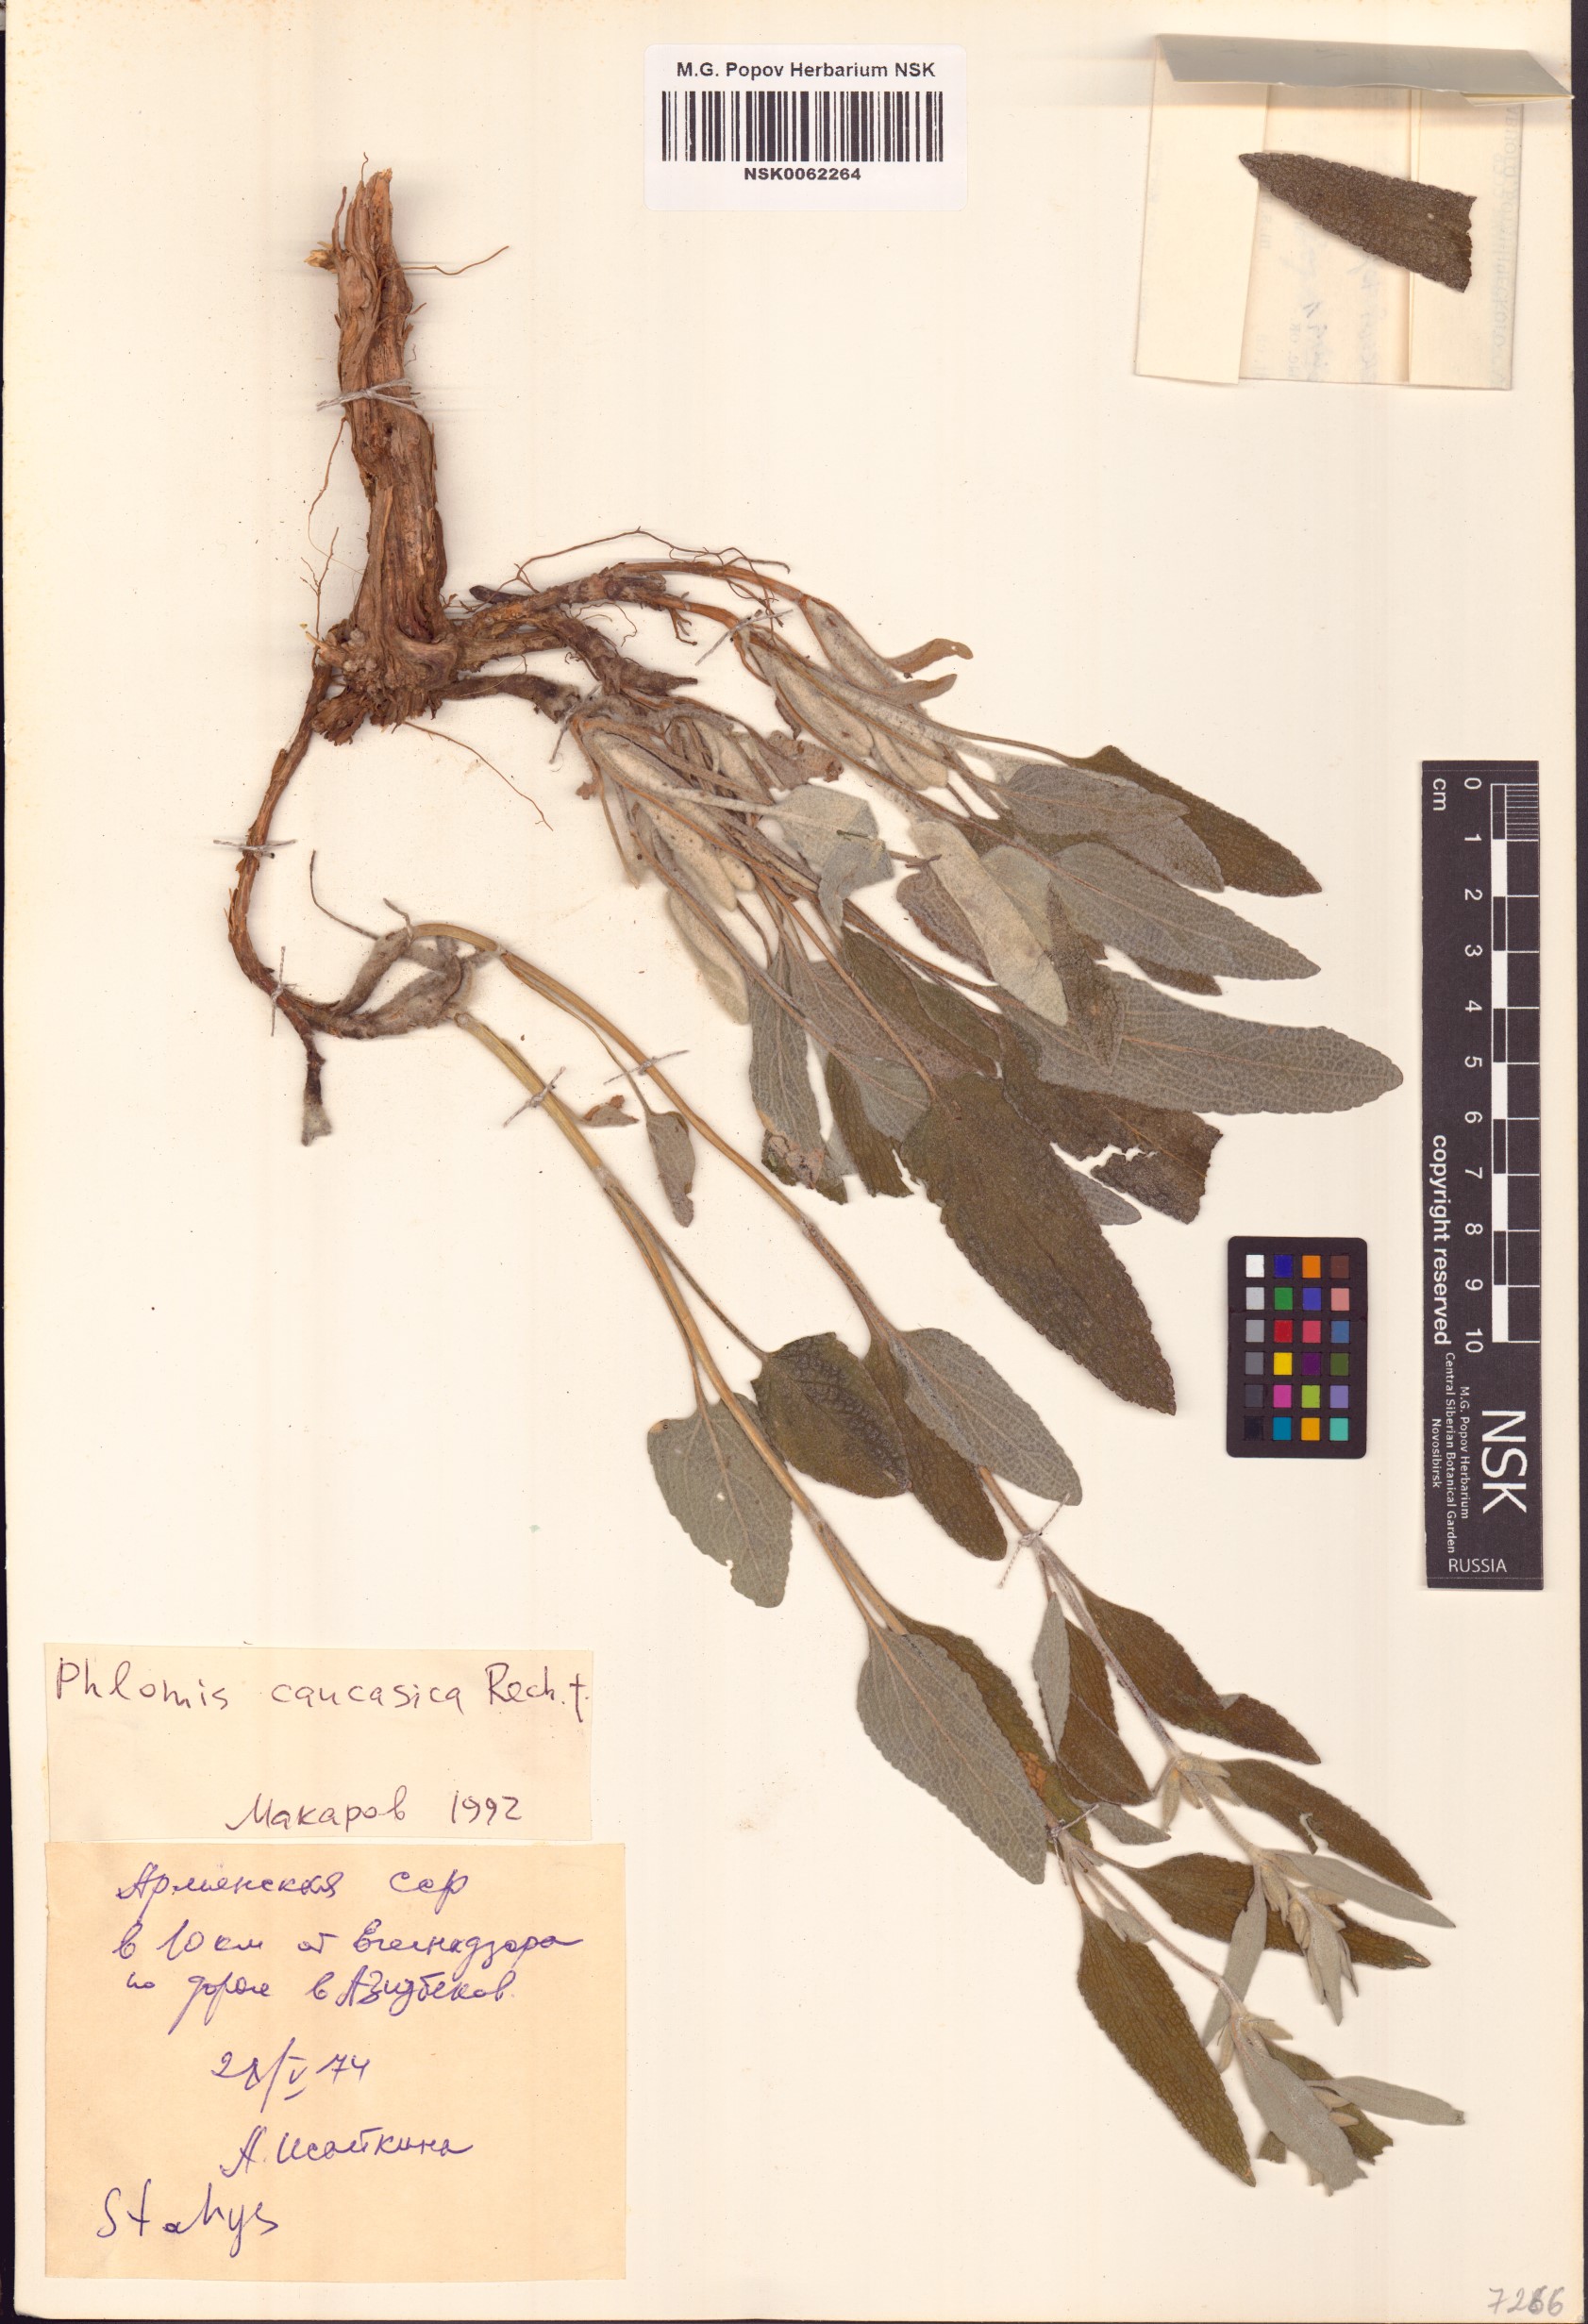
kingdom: Plantae
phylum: Tracheophyta
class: Magnoliopsida
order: Lamiales
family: Lamiaceae
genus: Phlomis
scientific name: Phlomis orientalis
